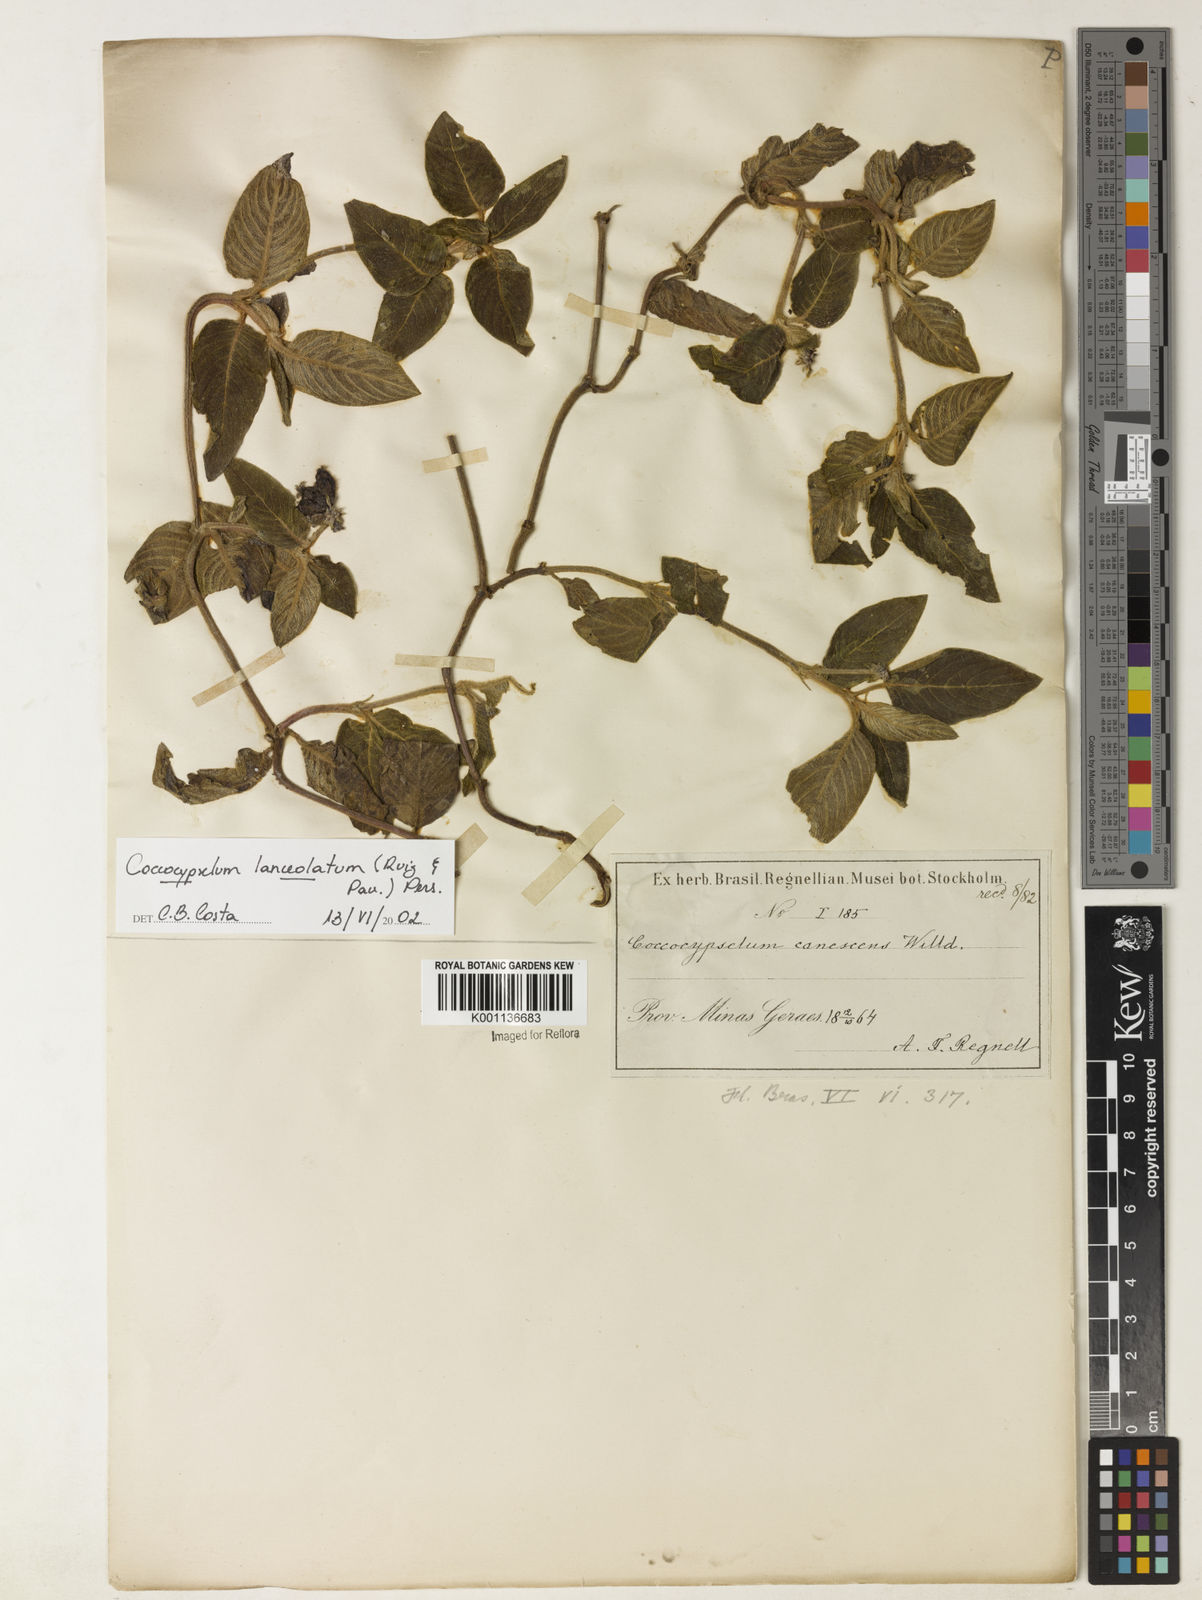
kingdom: Plantae
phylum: Tracheophyta
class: Magnoliopsida
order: Gentianales
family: Rubiaceae
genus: Coccocypselum
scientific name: Coccocypselum lanceolatum
